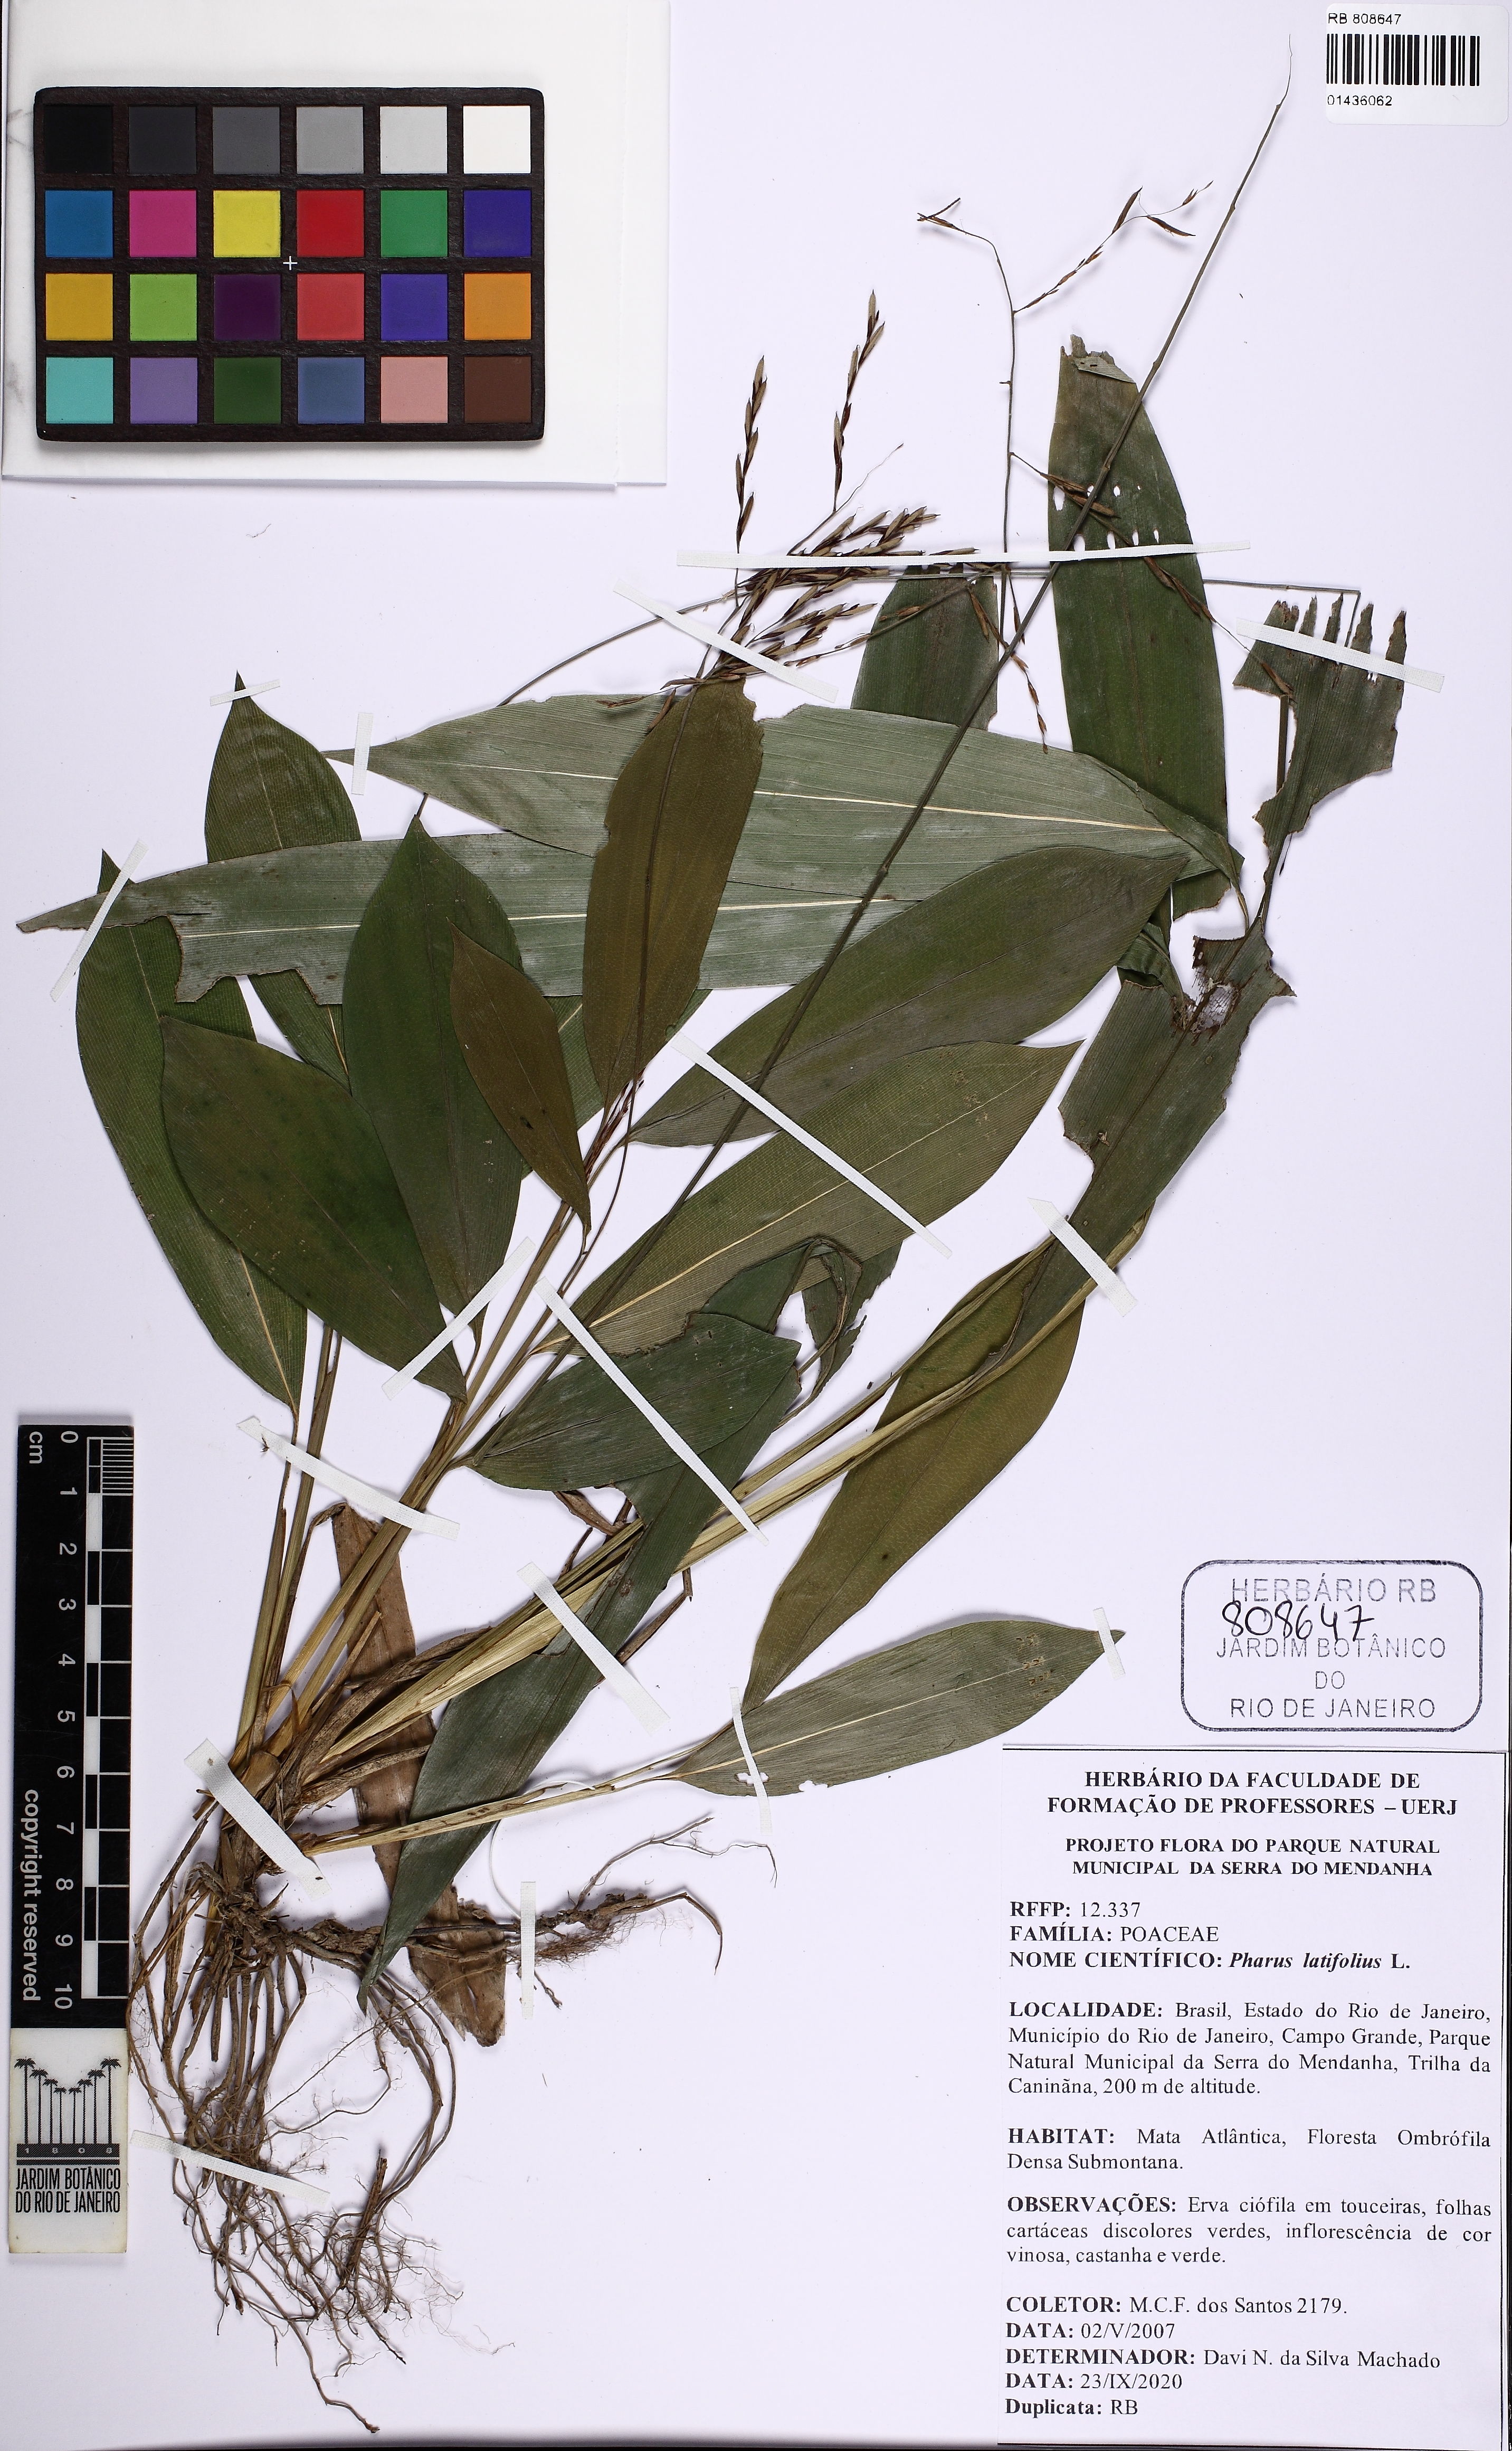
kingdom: Plantae
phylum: Tracheophyta
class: Liliopsida
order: Poales
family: Poaceae
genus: Pharus
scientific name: Pharus latifolius
